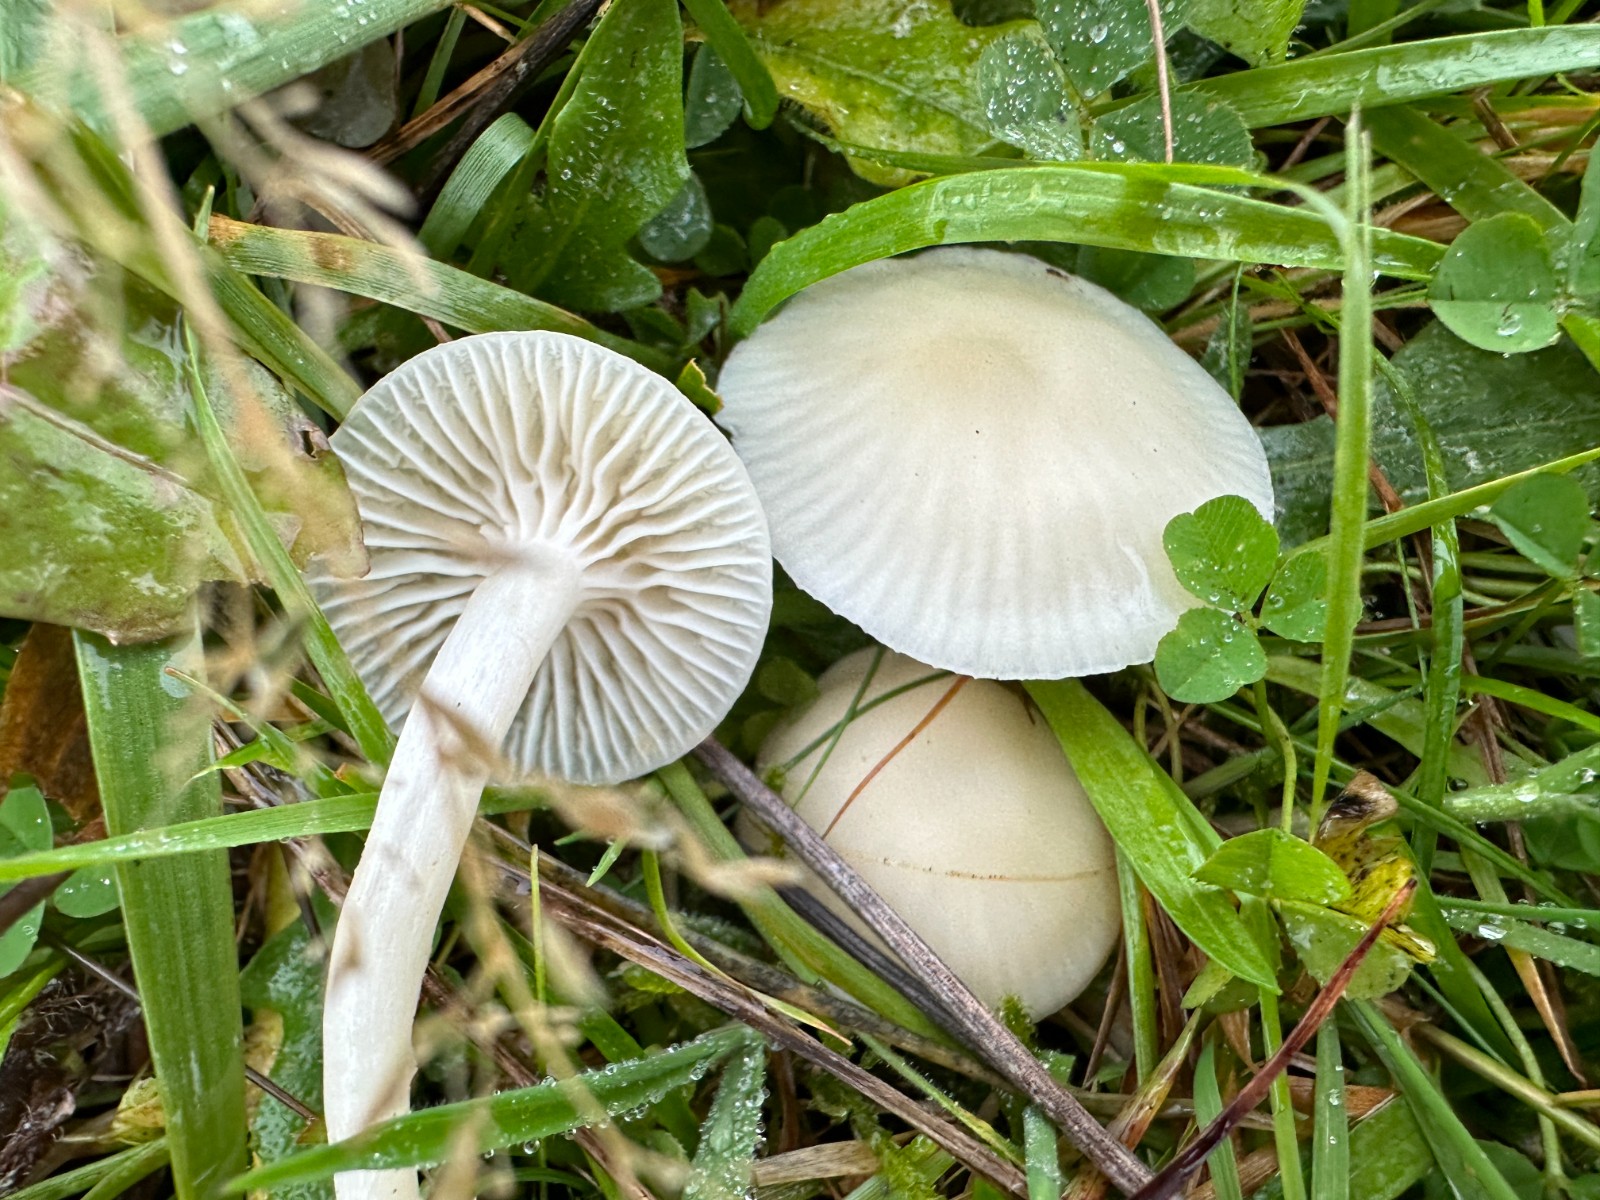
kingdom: Fungi
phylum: Basidiomycota
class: Agaricomycetes
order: Agaricales
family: Hygrophoraceae
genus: Cuphophyllus
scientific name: Cuphophyllus virgineus
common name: snehvid vokshat
